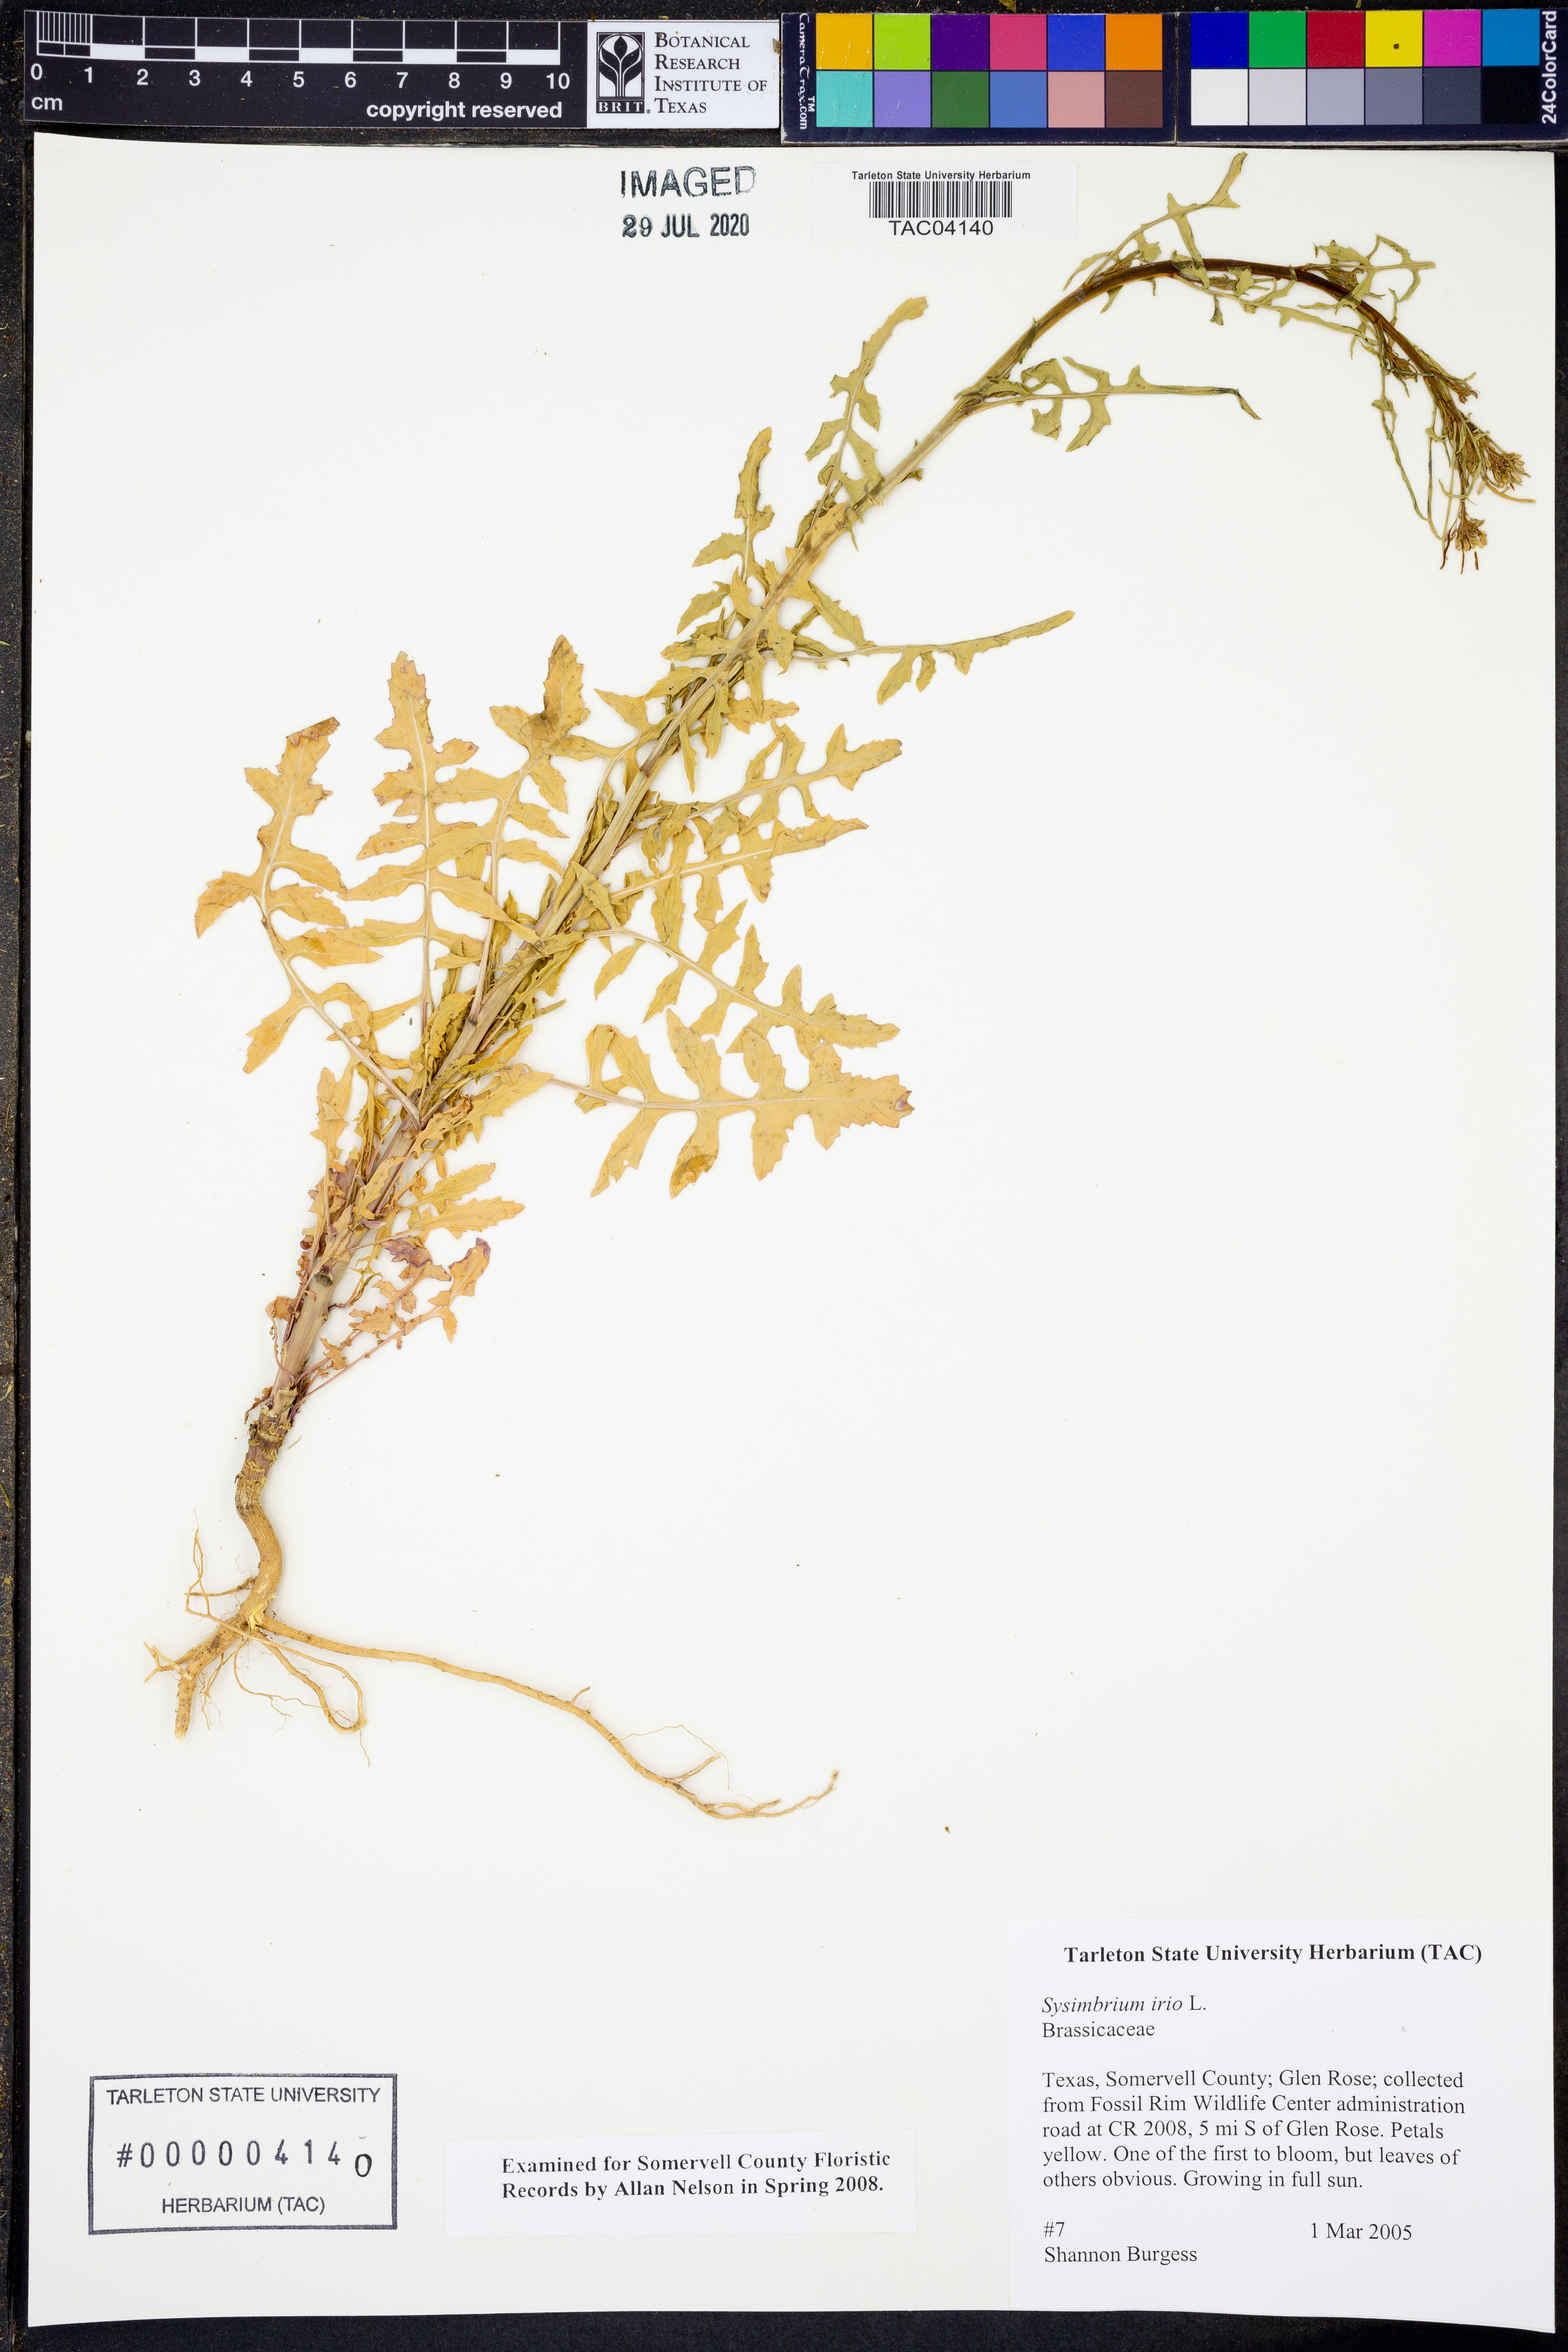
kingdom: Plantae
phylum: Tracheophyta
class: Magnoliopsida
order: Brassicales
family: Brassicaceae
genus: Sisymbrium
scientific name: Sisymbrium irio
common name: London rocket
